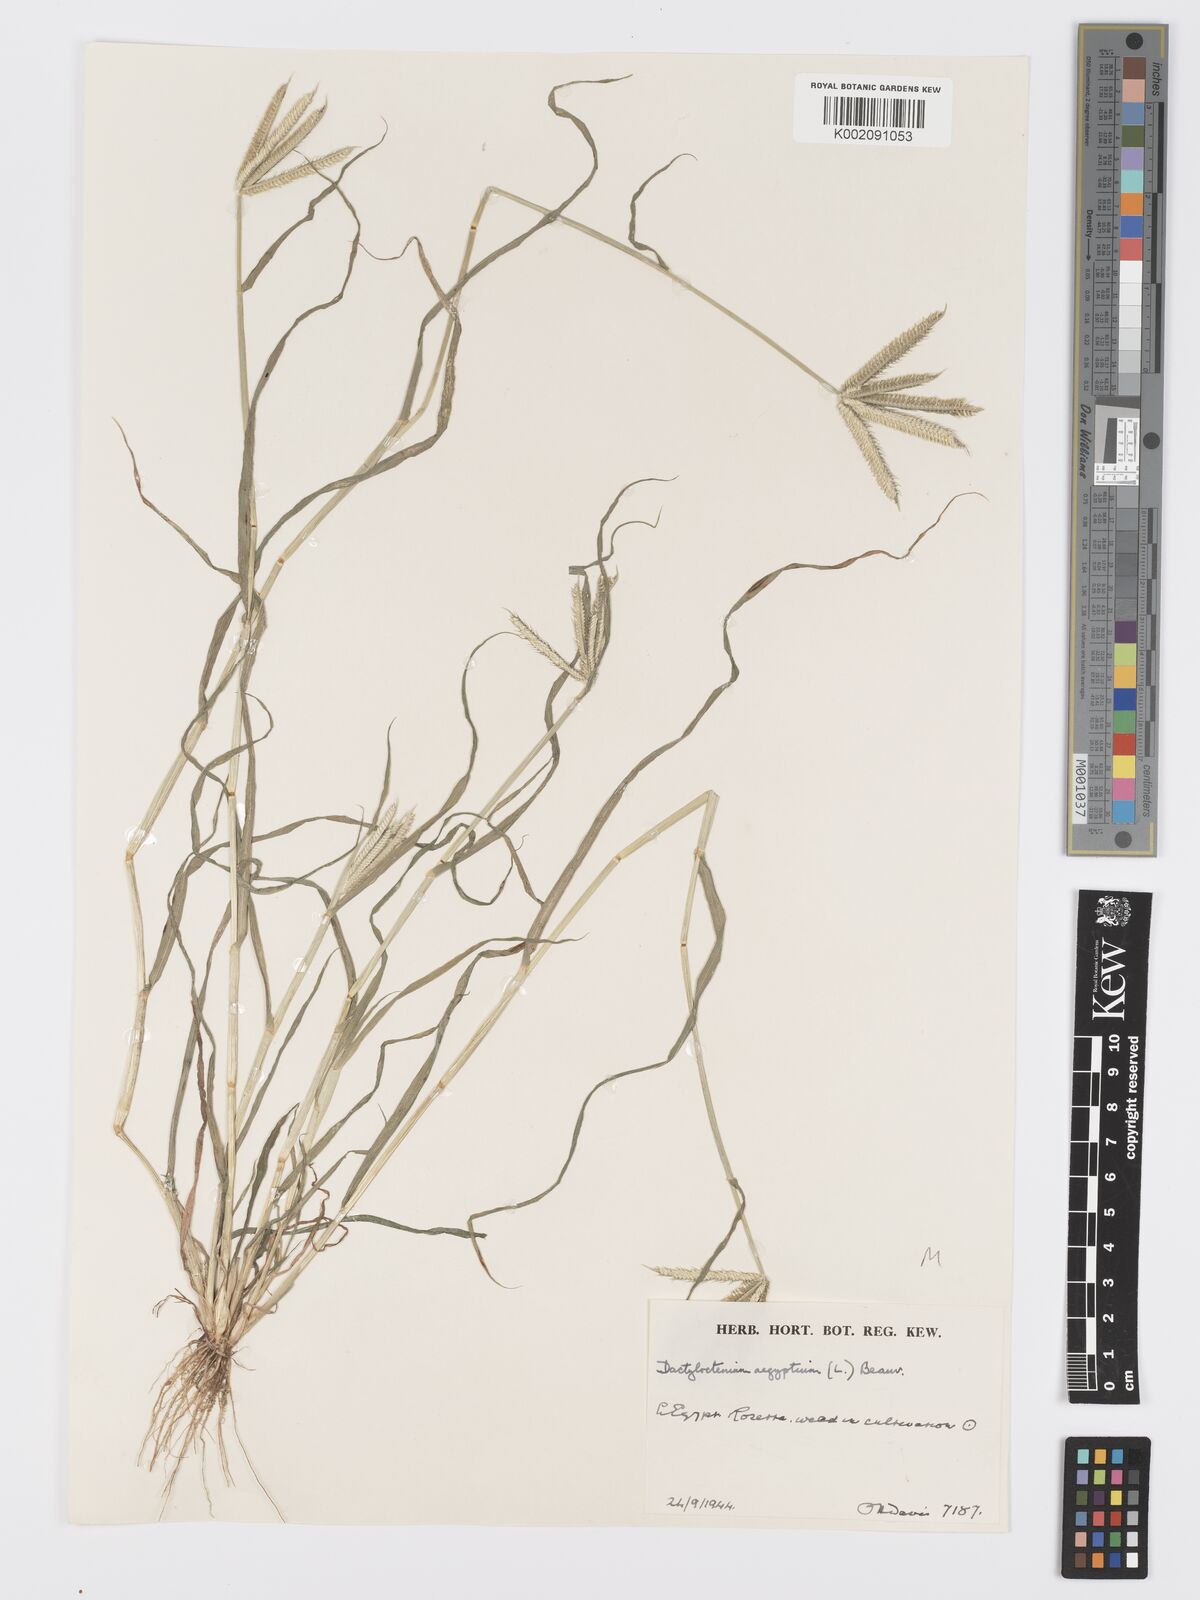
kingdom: Plantae
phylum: Tracheophyta
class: Liliopsida
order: Poales
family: Poaceae
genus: Dactyloctenium
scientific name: Dactyloctenium aegyptium
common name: Egyptian grass
